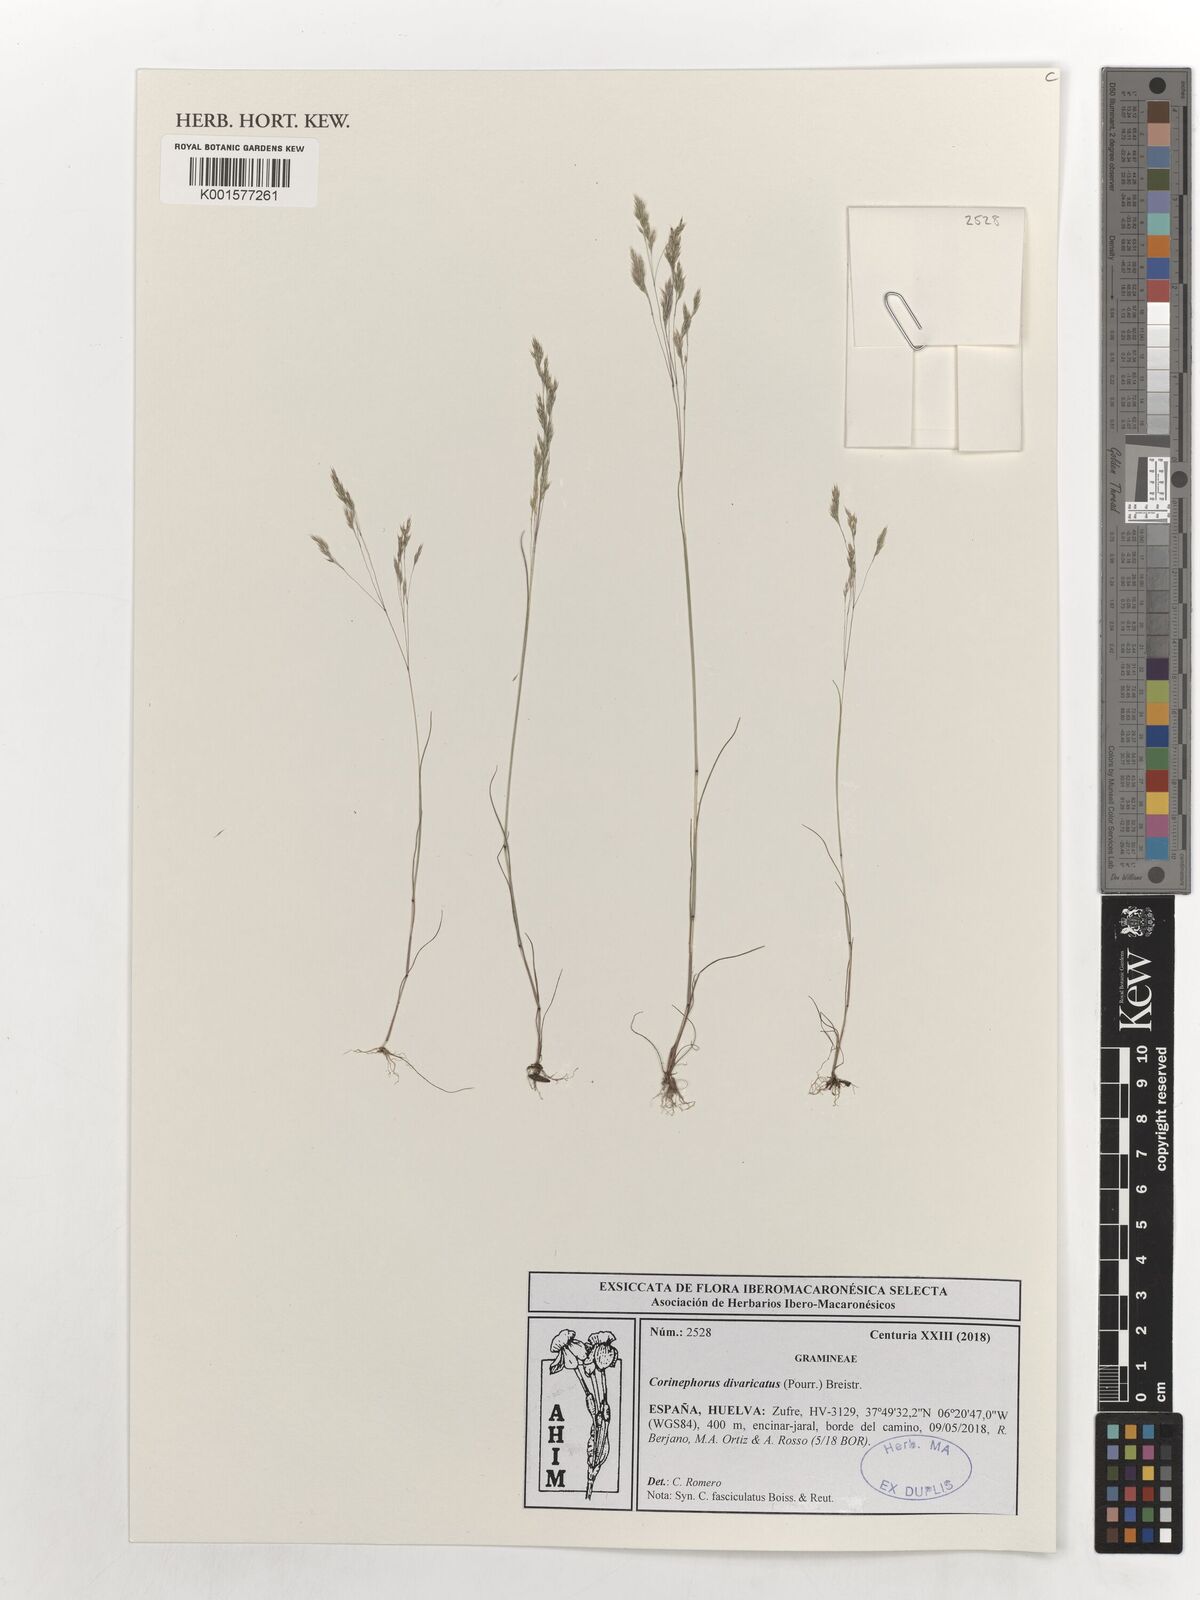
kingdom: Plantae
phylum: Tracheophyta
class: Liliopsida
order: Poales
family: Poaceae
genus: Corynephorus
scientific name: Corynephorus divaricatus
